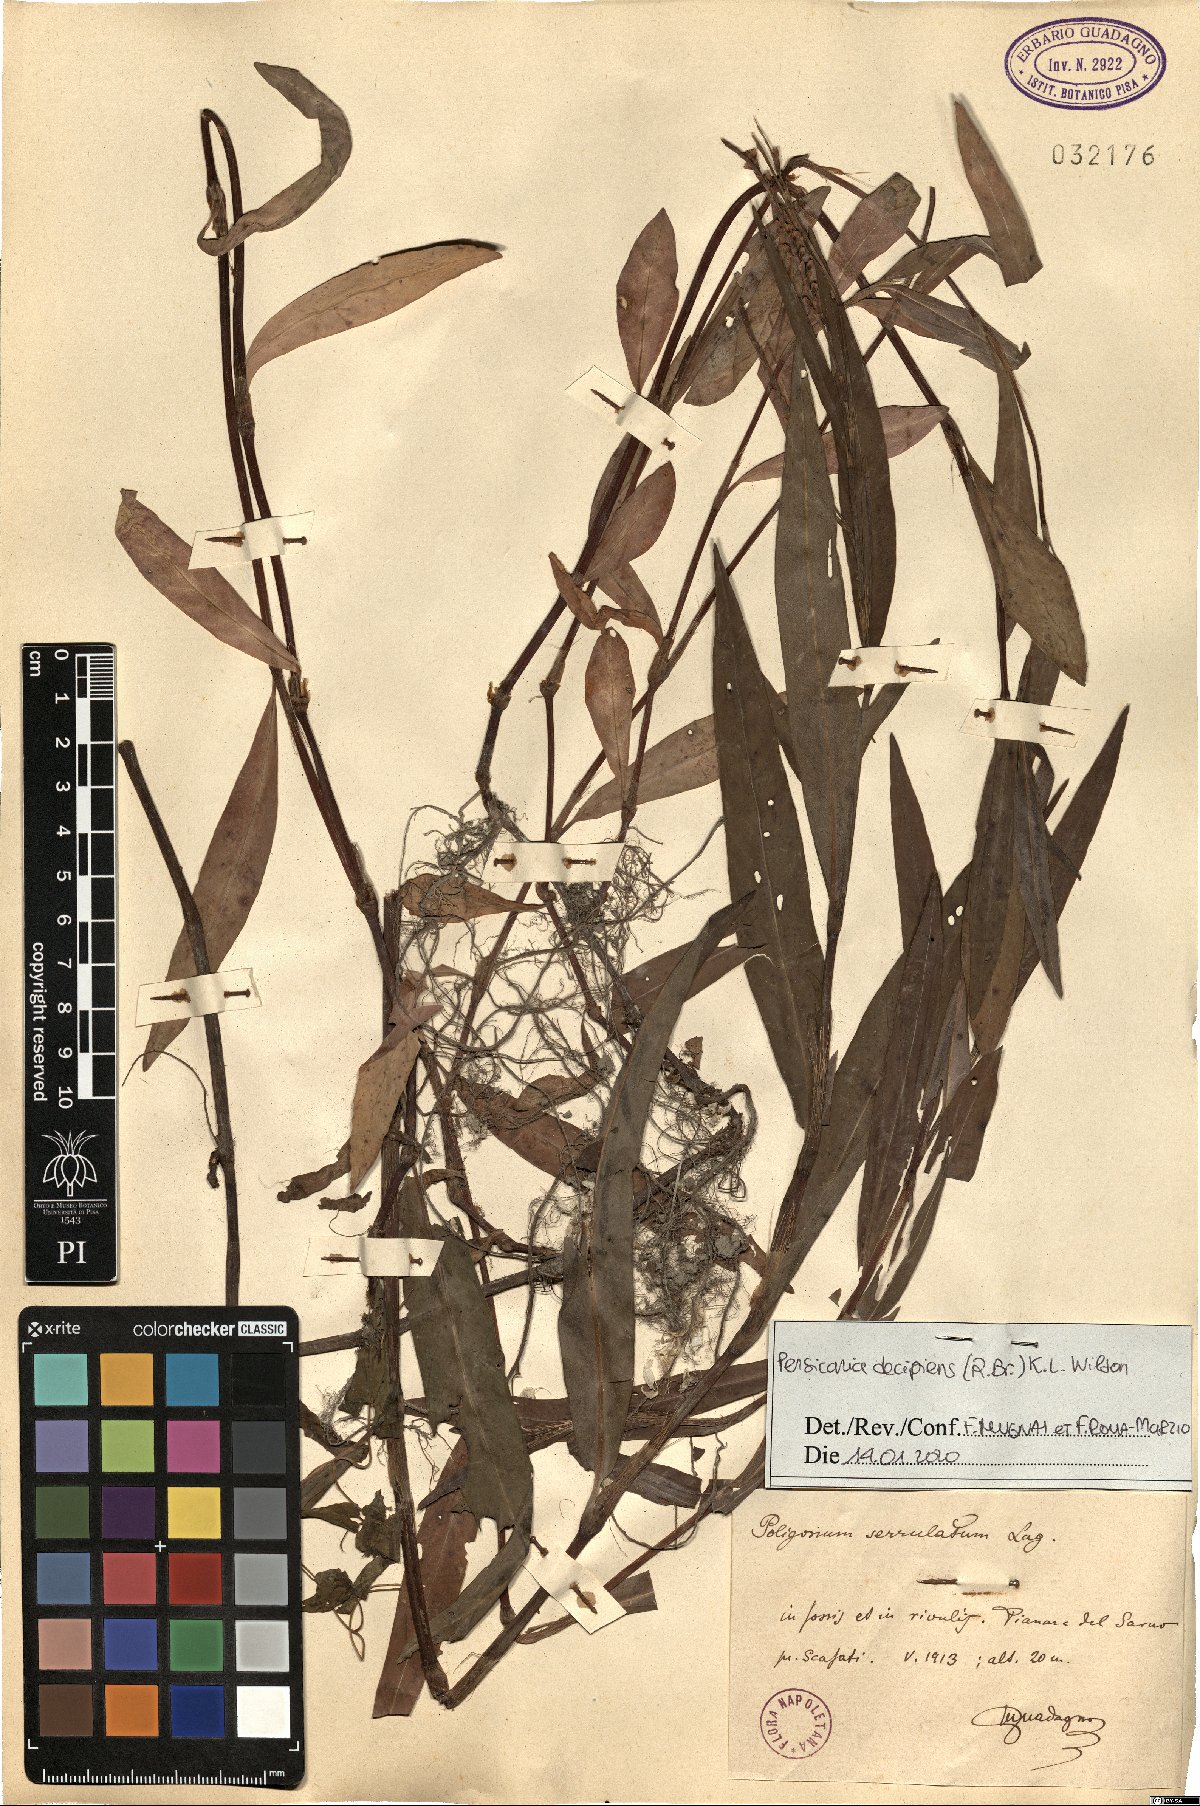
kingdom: Plantae
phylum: Tracheophyta
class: Magnoliopsida
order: Caryophyllales
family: Polygonaceae
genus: Persicaria
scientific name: Persicaria decipiens
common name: Willow-weed
